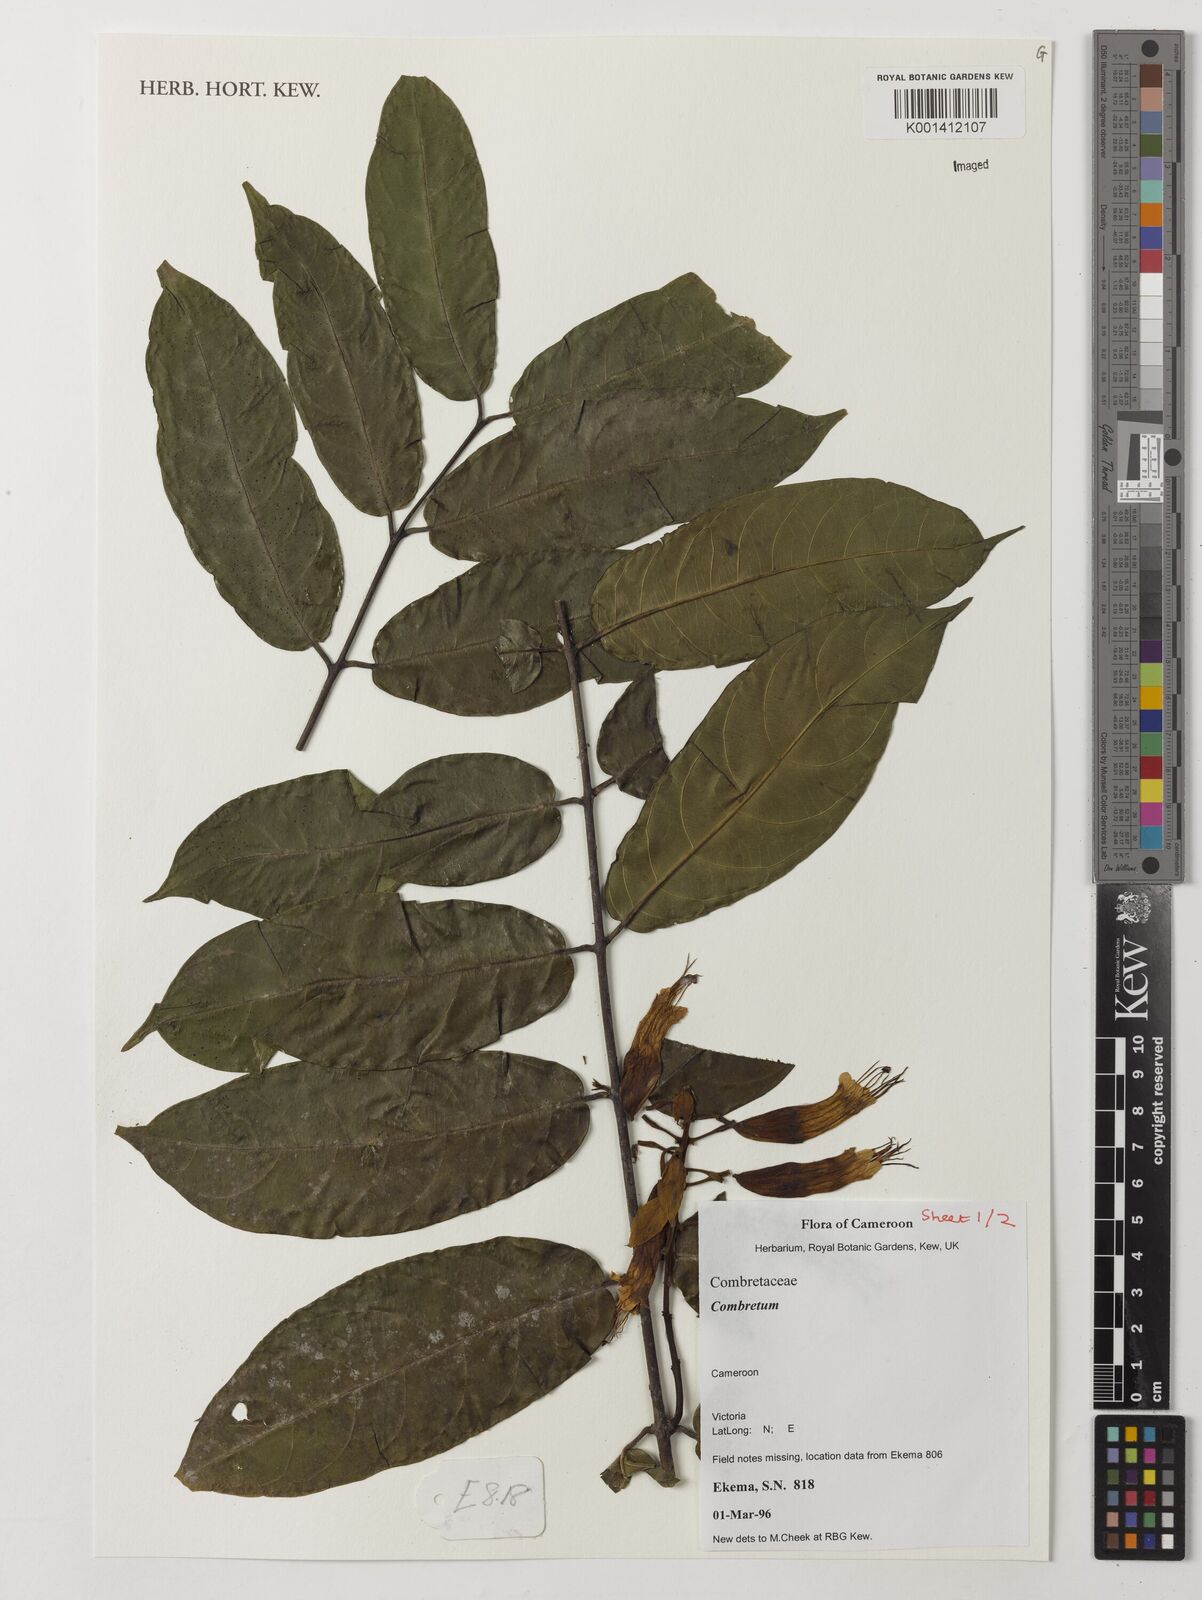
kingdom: Plantae
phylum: Tracheophyta
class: Magnoliopsida
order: Myrtales
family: Combretaceae
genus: Combretum
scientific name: Combretum
